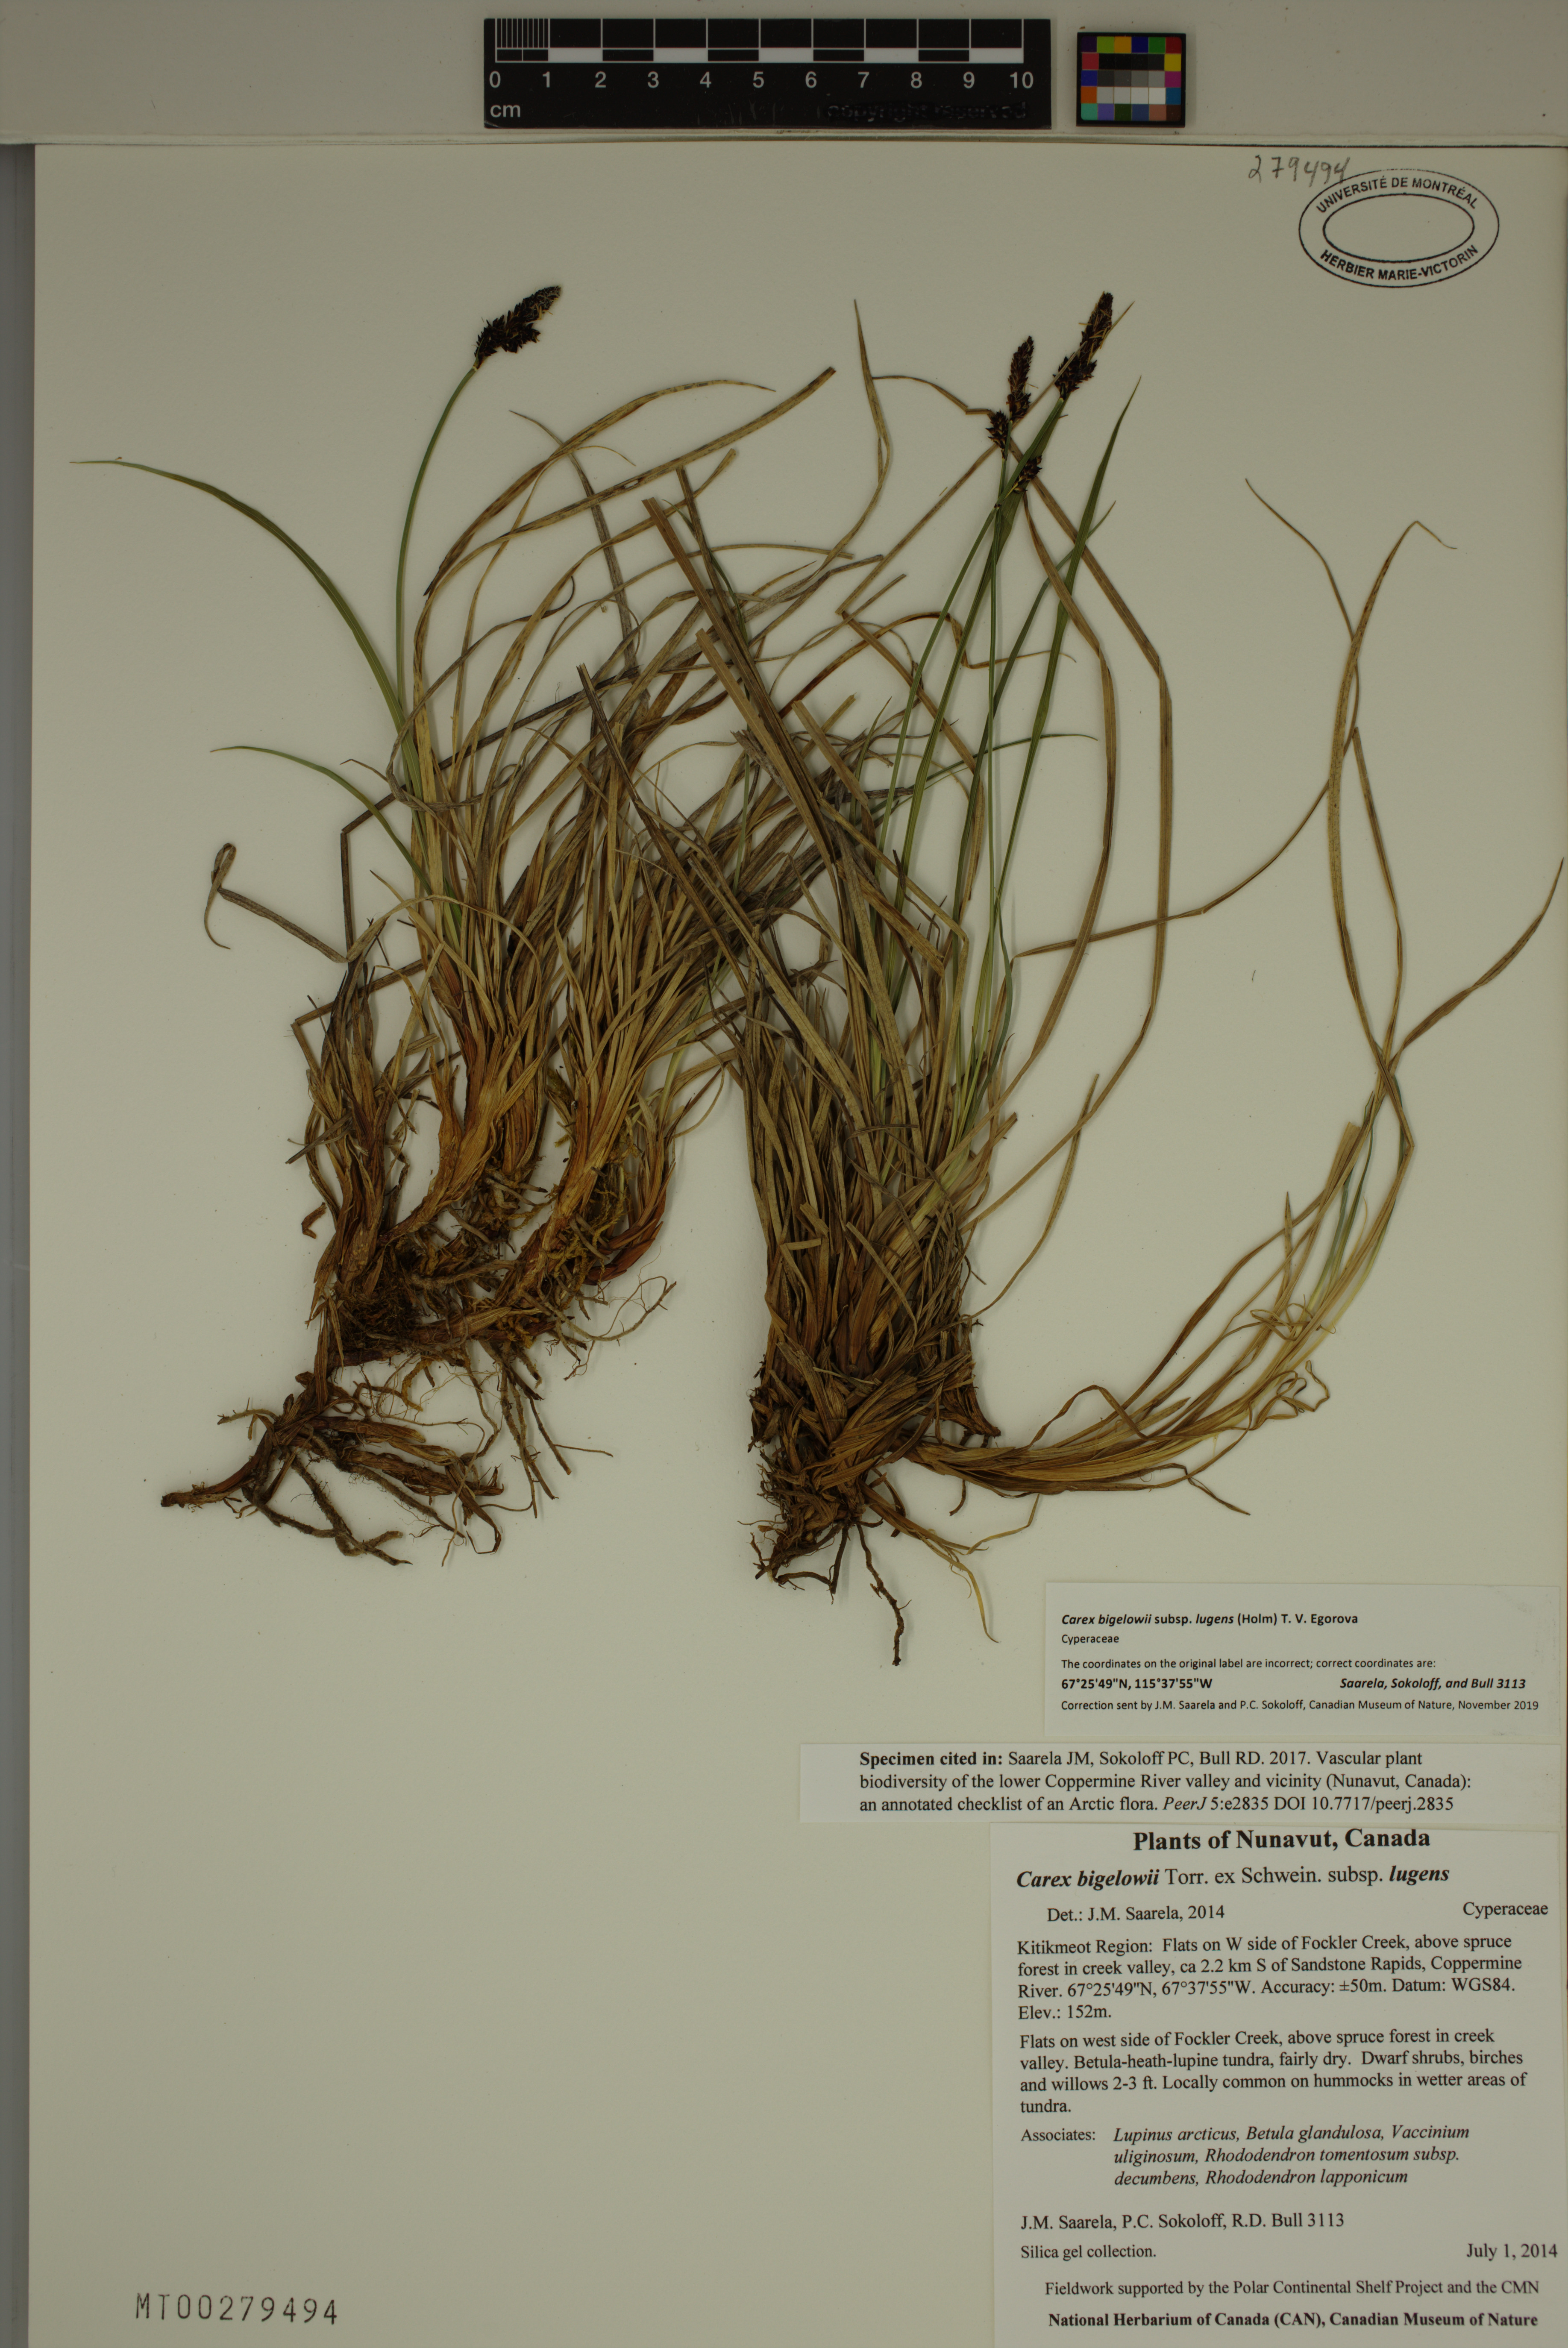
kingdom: Plantae
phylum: Tracheophyta
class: Liliopsida
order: Poales
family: Cyperaceae
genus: Carex
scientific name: Carex bigelowii
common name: Stiff sedge
